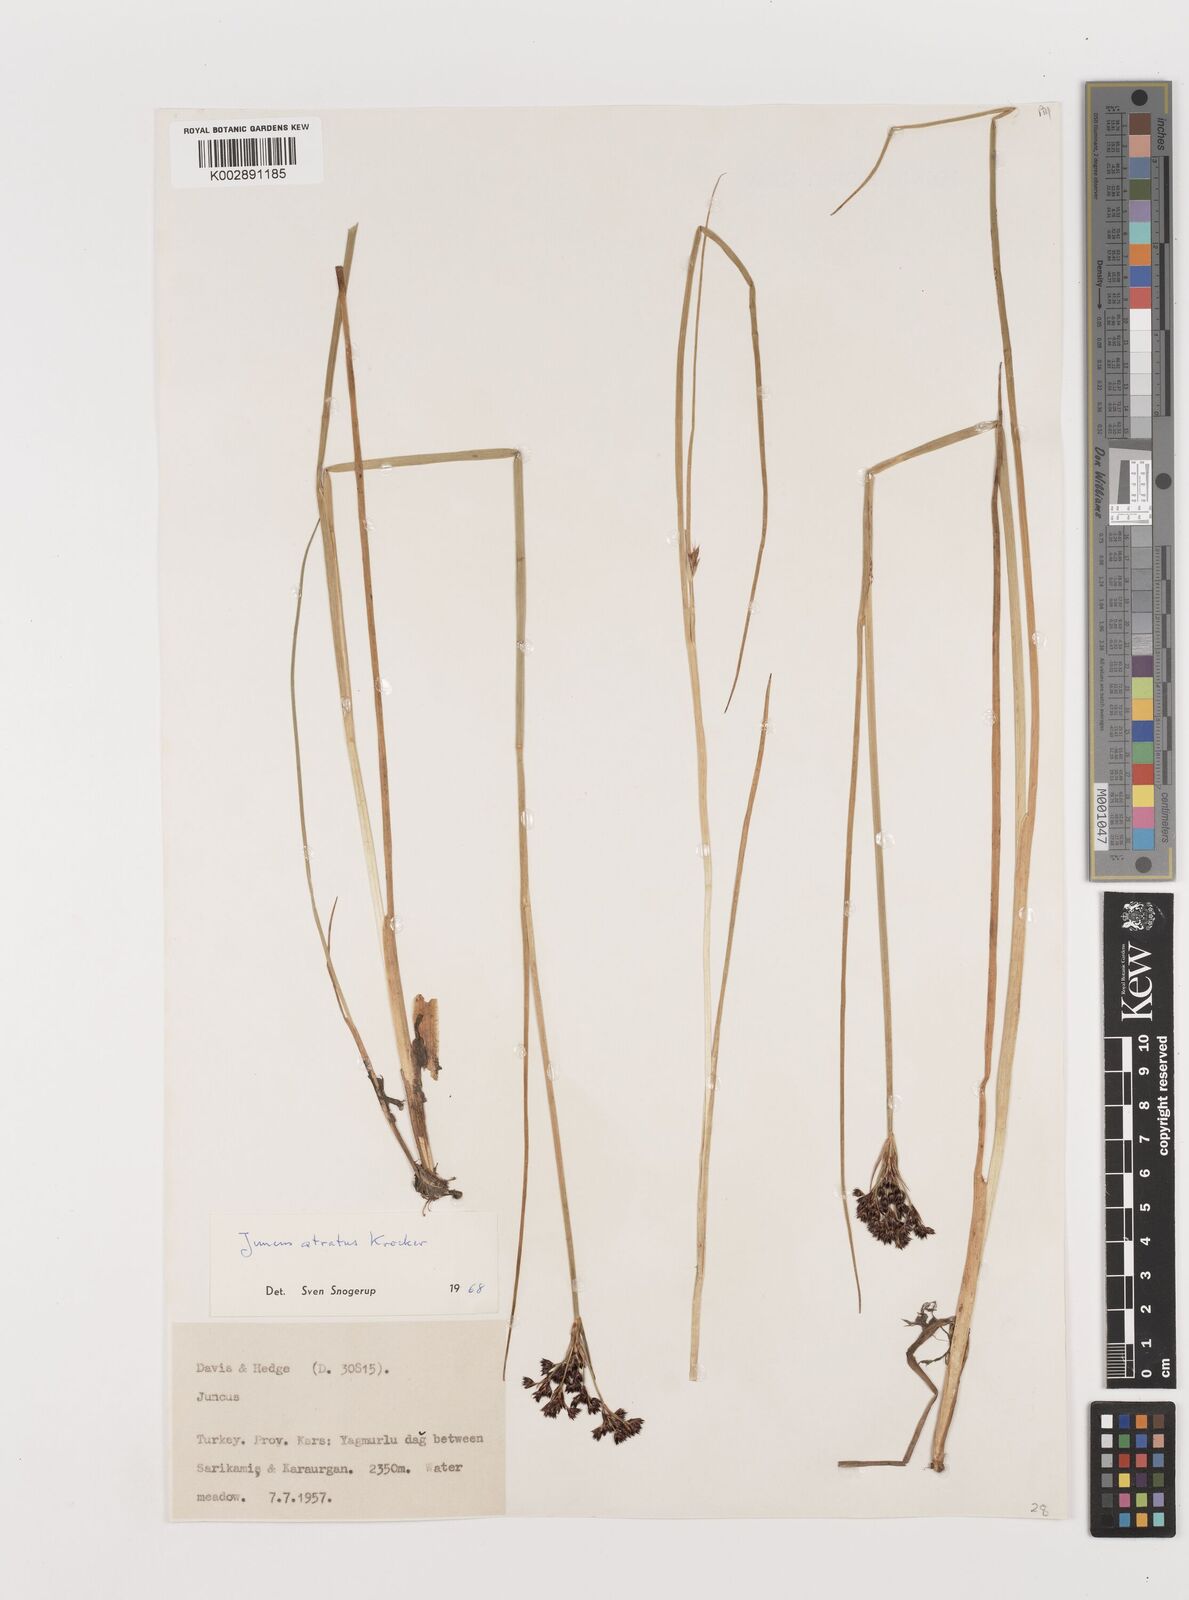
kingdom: Plantae
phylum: Tracheophyta
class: Liliopsida
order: Poales
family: Juncaceae
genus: Juncus
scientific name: Juncus jacquinii
